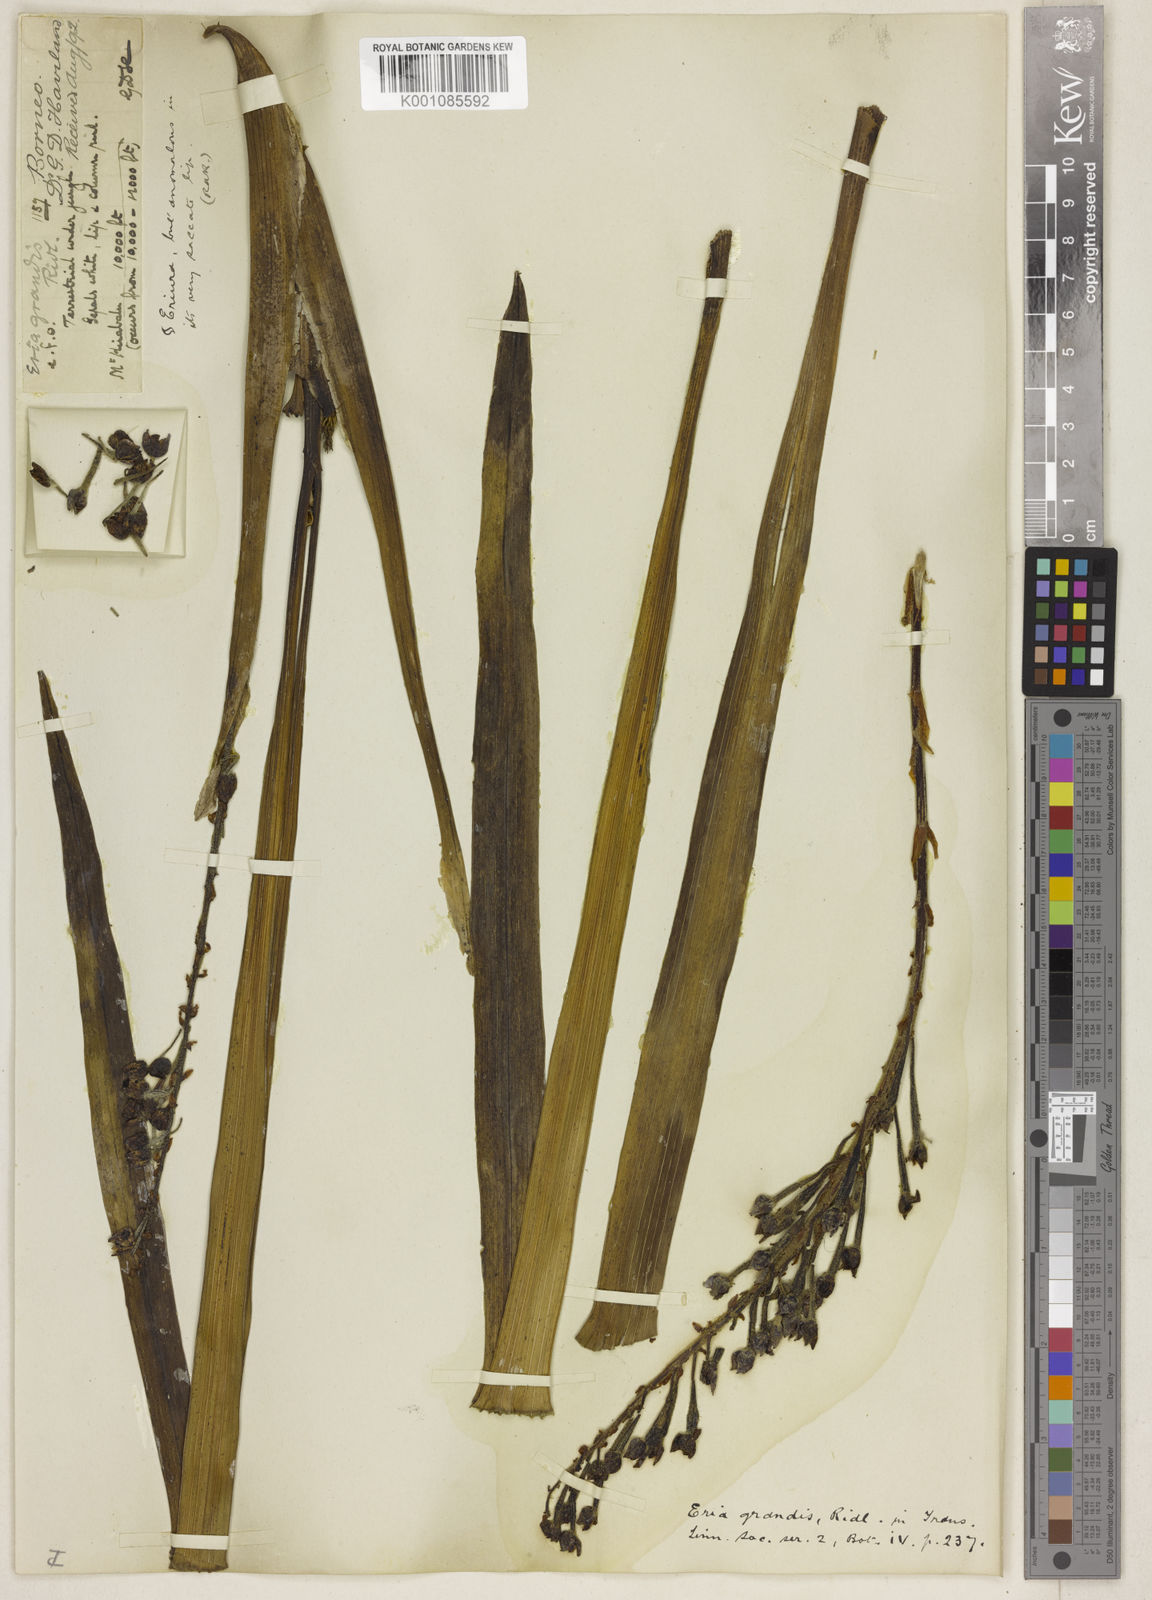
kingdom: Plantae
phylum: Tracheophyta
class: Liliopsida
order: Asparagales
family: Orchidaceae
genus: Cymboglossum
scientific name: Cymboglossum grande
